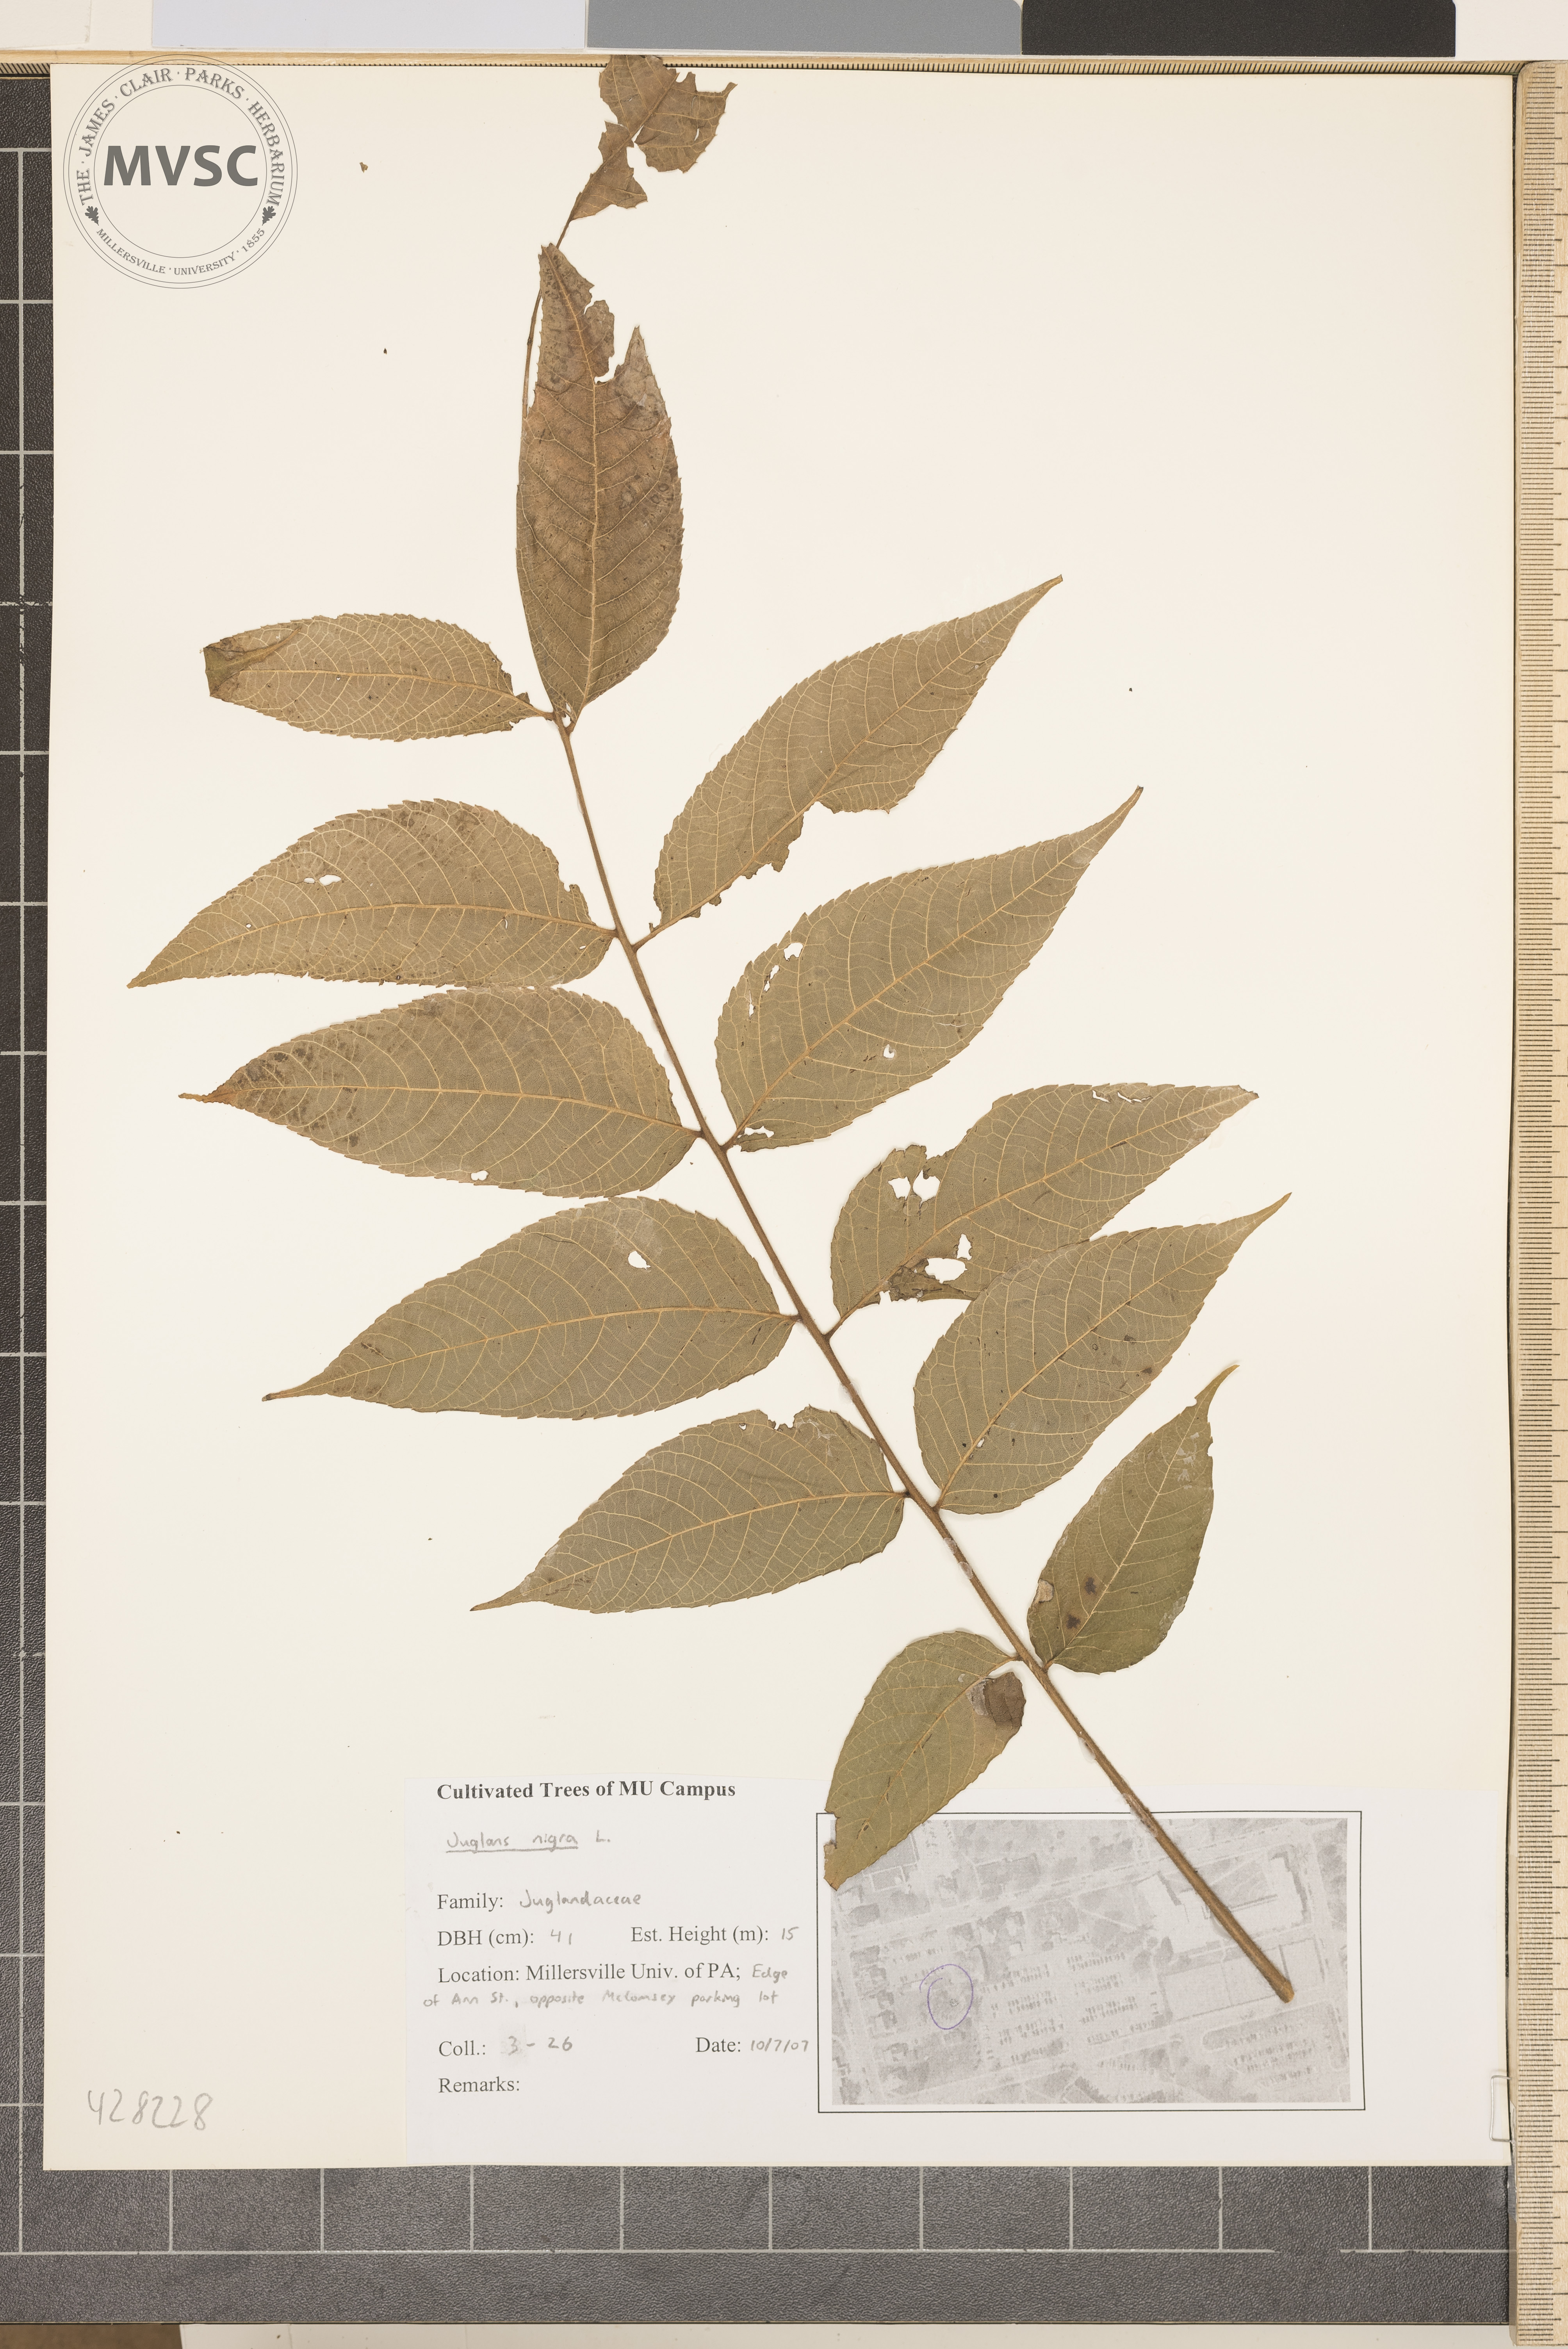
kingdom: Plantae
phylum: Tracheophyta
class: Magnoliopsida
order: Fagales
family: Juglandaceae
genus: Juglans
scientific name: Juglans nigra
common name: Black walnut
